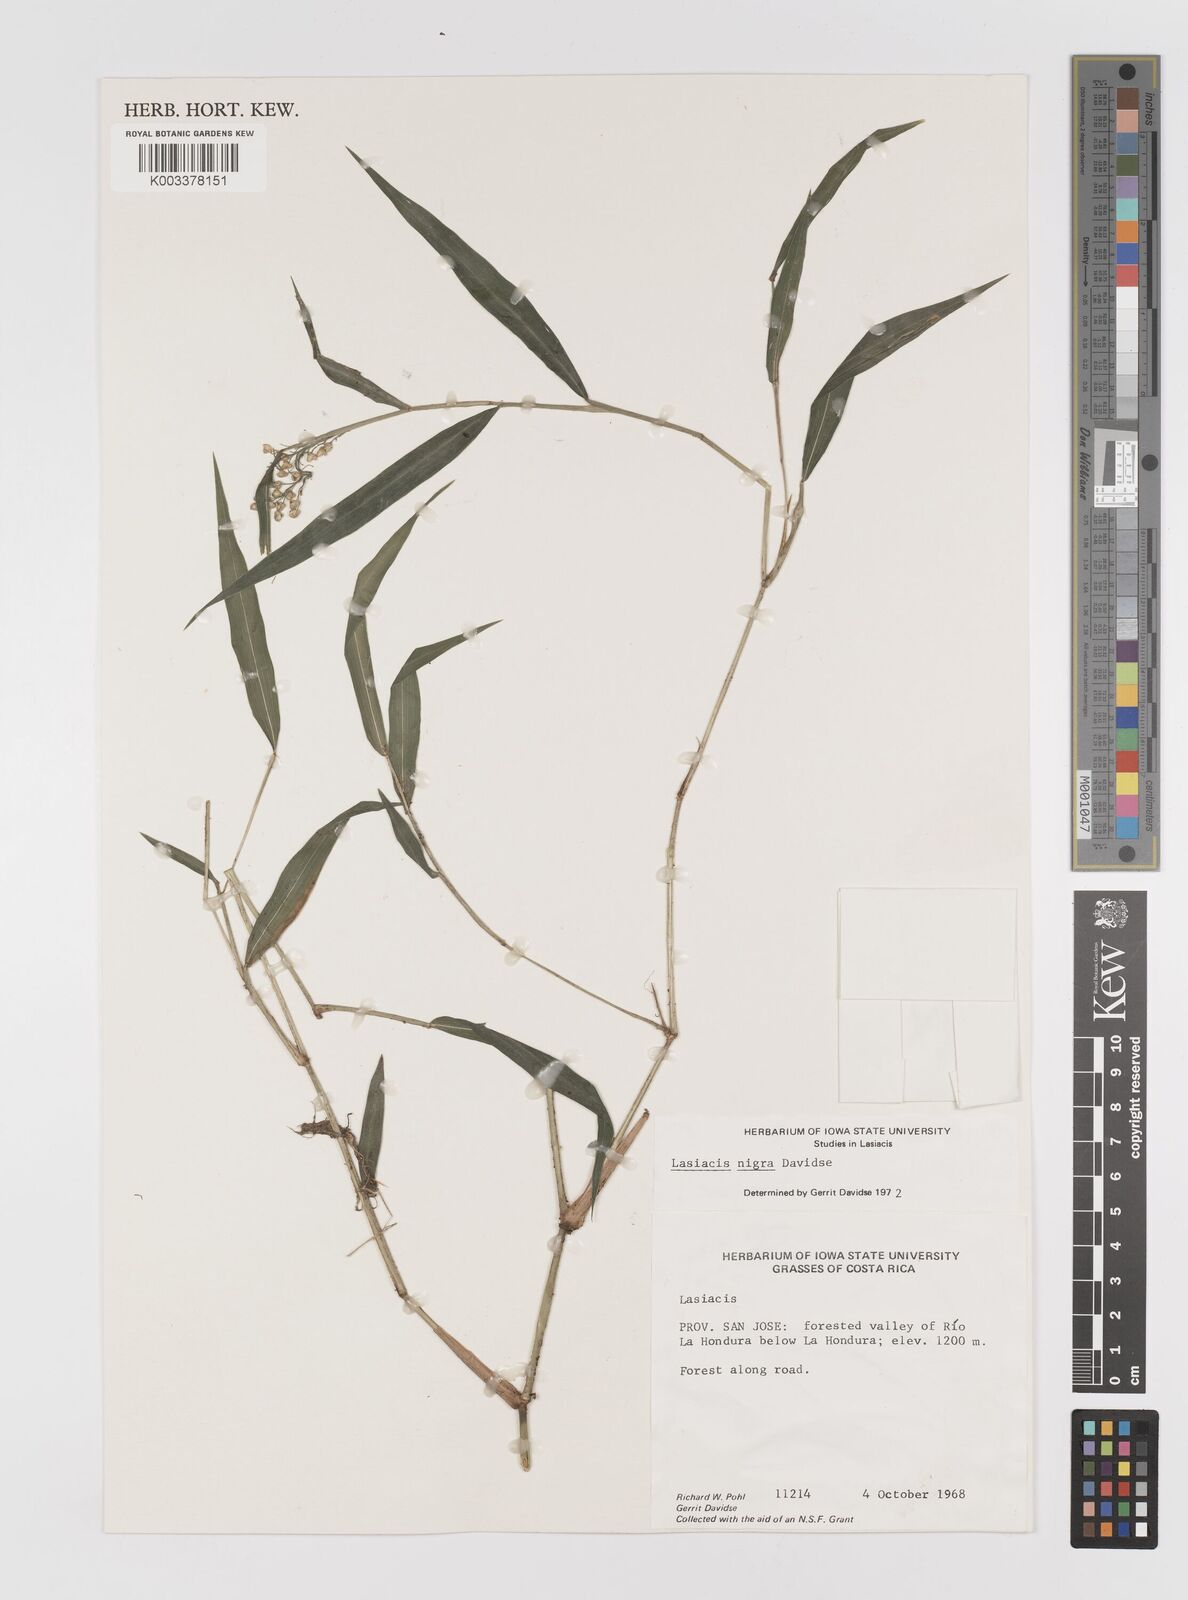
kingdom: Plantae
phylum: Tracheophyta
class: Liliopsida
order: Poales
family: Poaceae
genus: Lasiacis
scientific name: Lasiacis nigra
